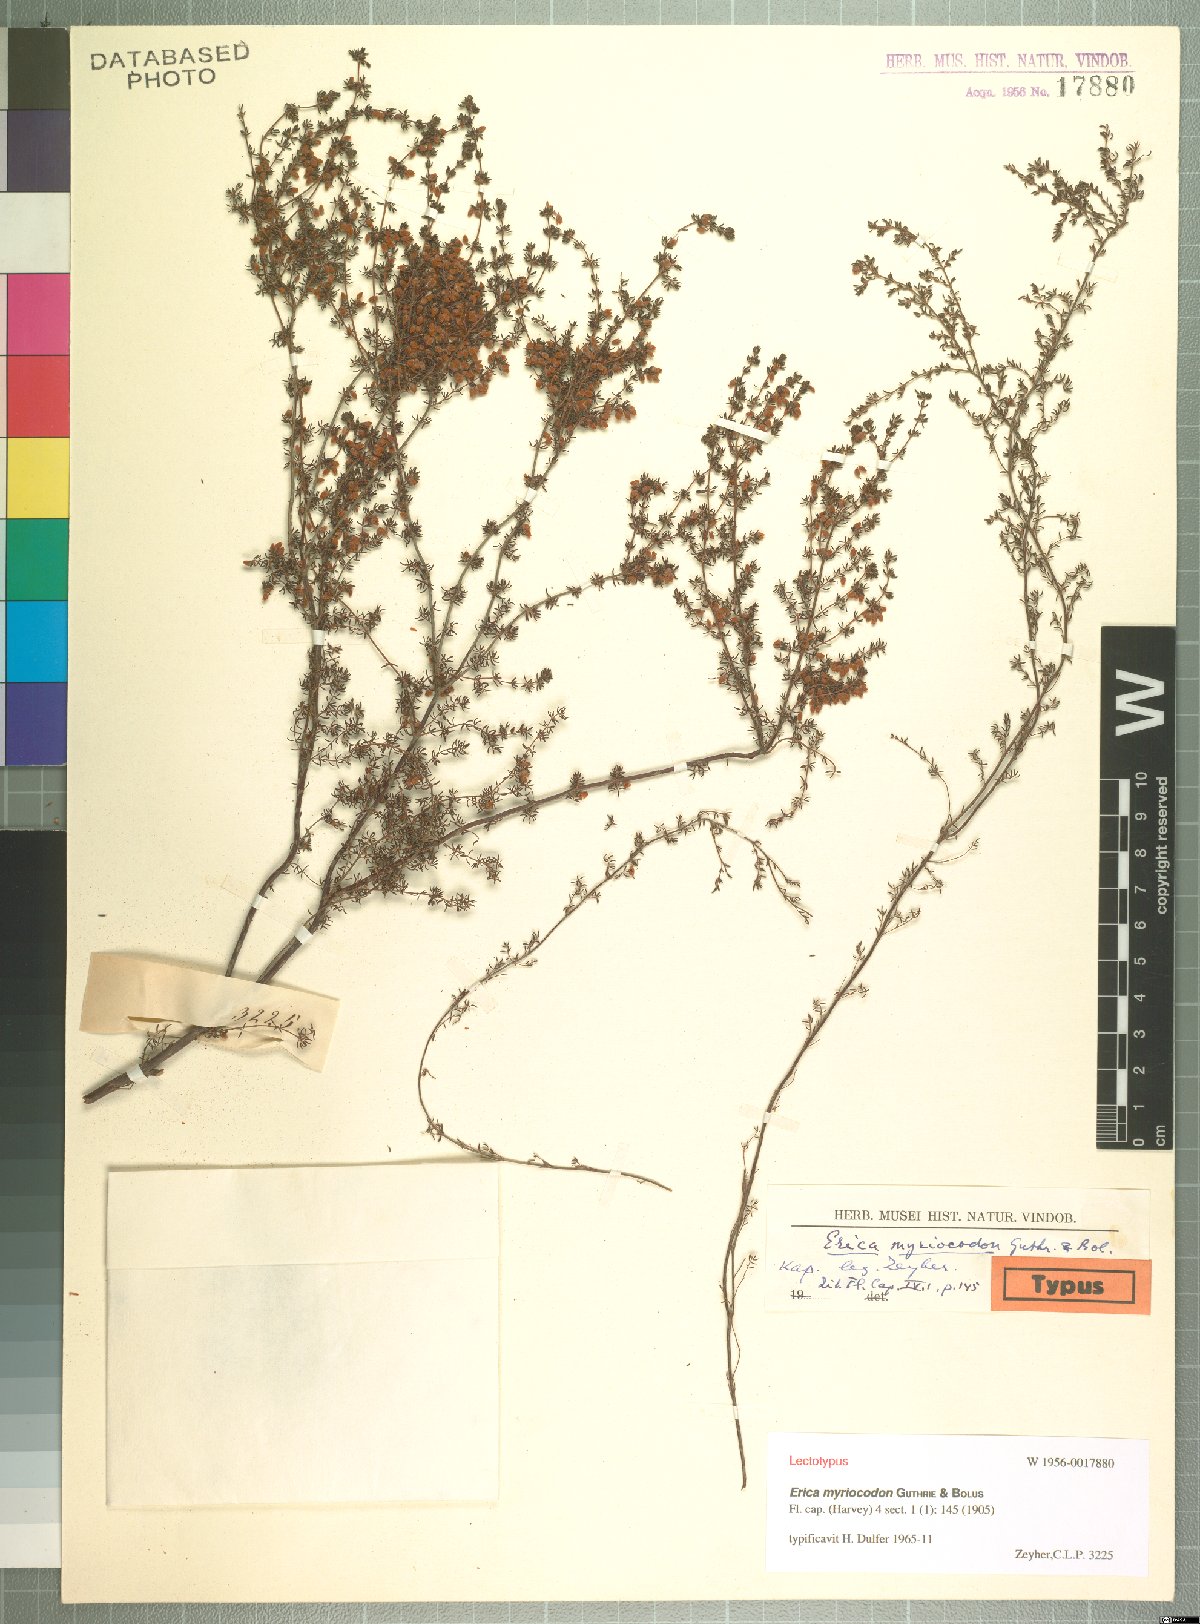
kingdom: Plantae
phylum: Tracheophyta
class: Magnoliopsida
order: Ericales
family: Ericaceae
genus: Erica
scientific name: Erica myriocodon
